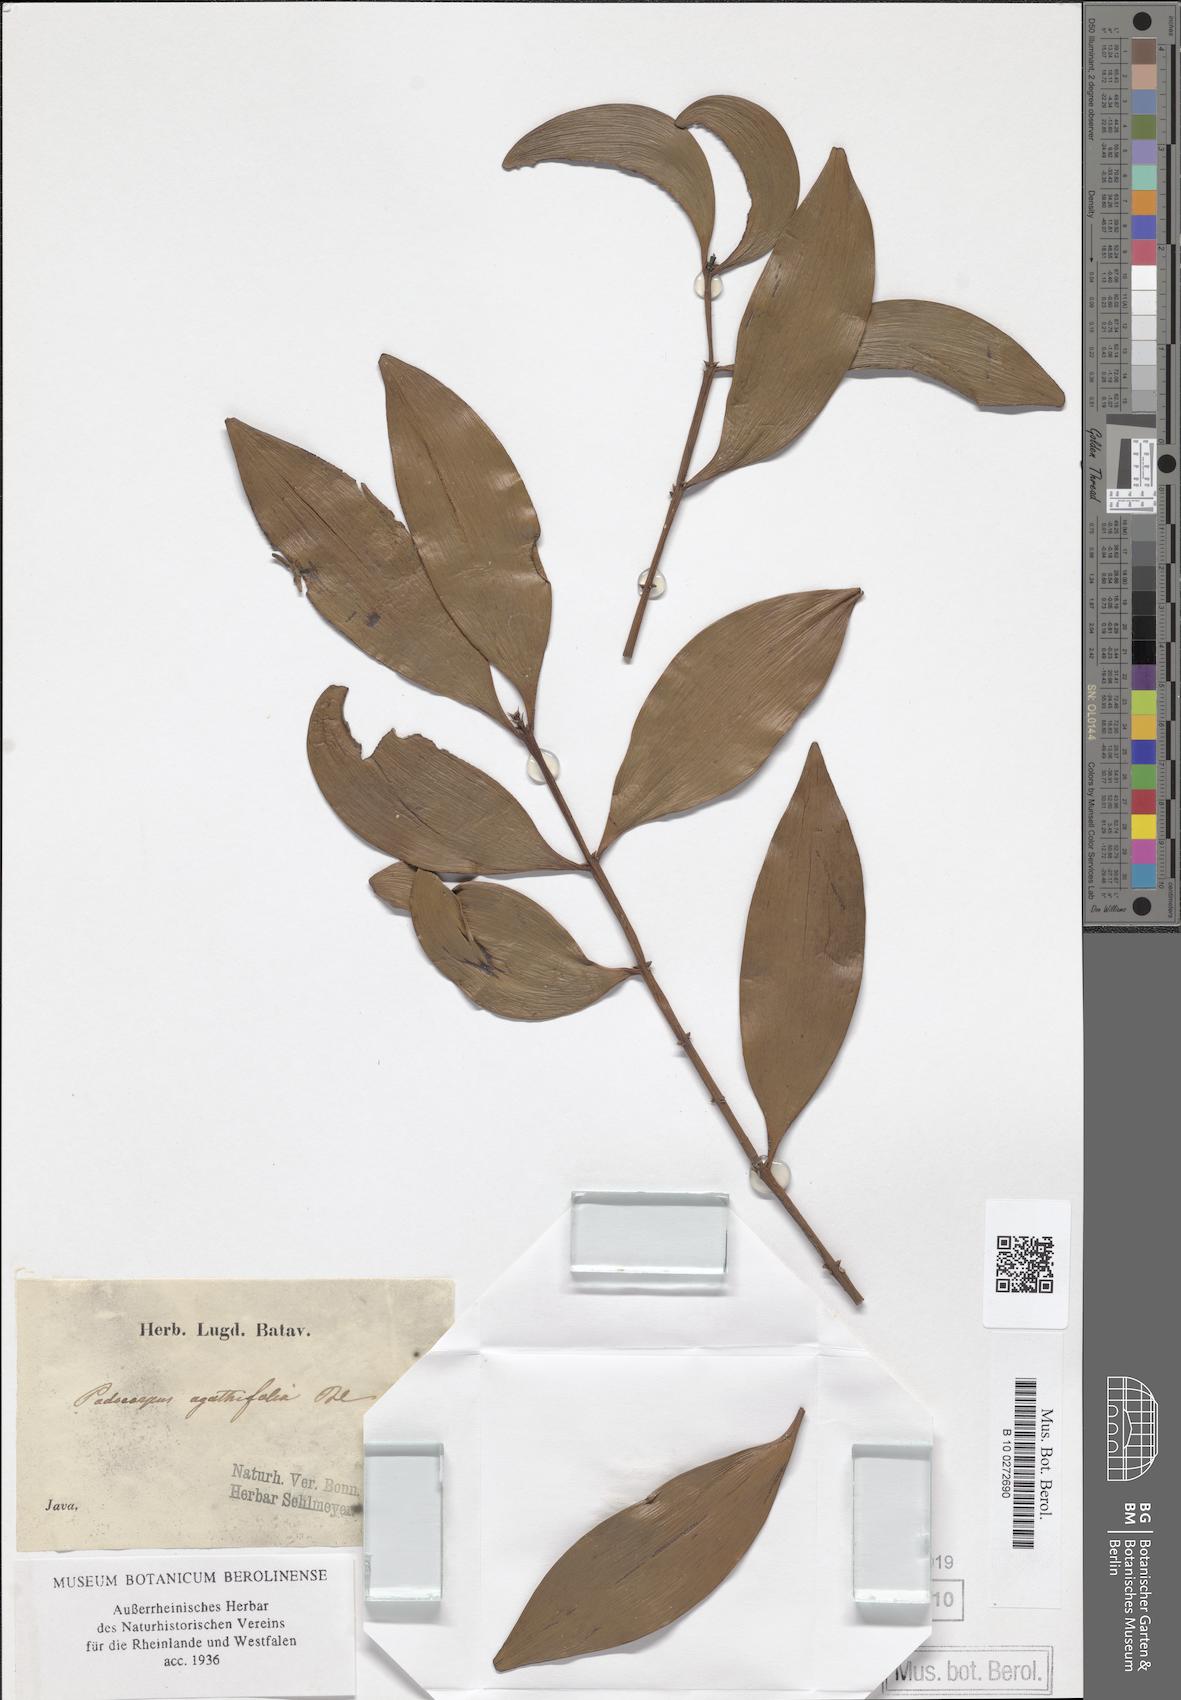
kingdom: Plantae
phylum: Tracheophyta
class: Pinopsida
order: Pinales
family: Podocarpaceae
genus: Nageia
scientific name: Nageia wallichiana
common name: Brown's-pine
